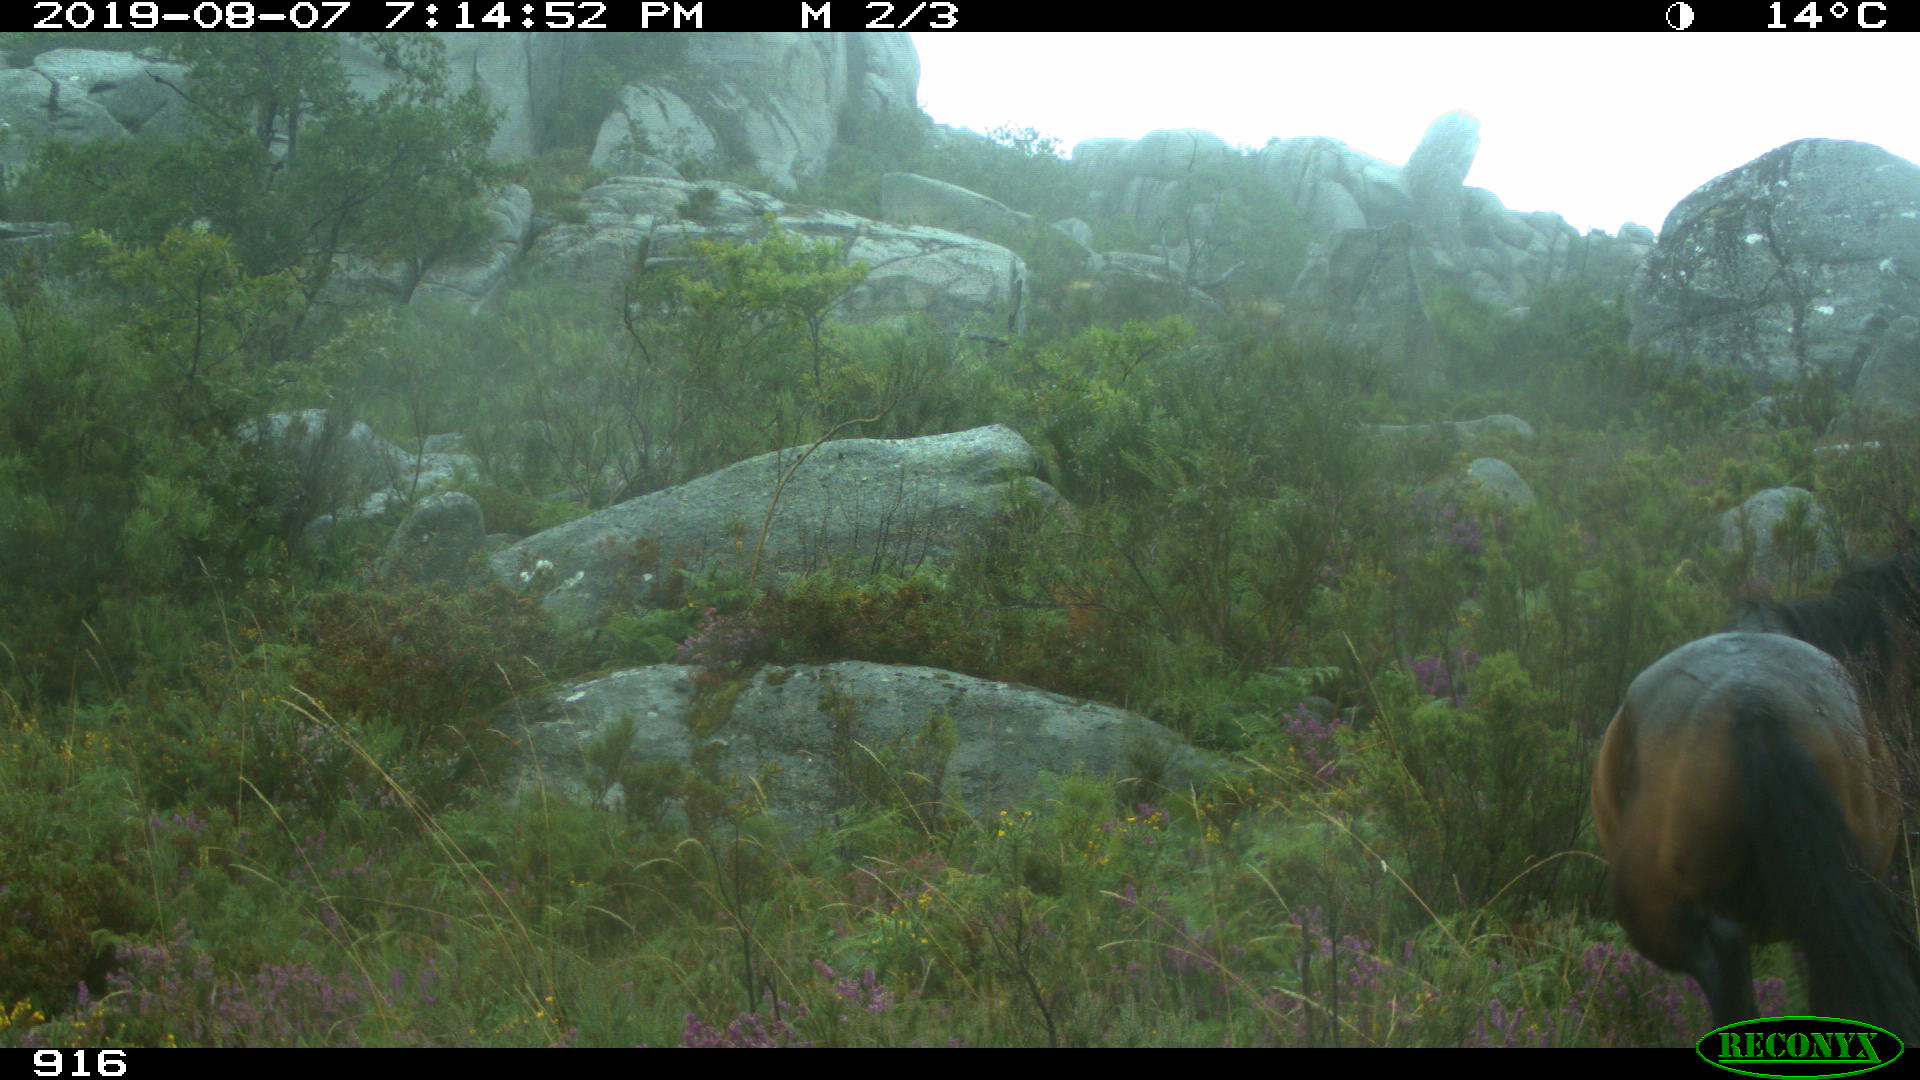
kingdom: Animalia
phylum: Chordata
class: Mammalia
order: Perissodactyla
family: Equidae
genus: Equus
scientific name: Equus caballus
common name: Horse
